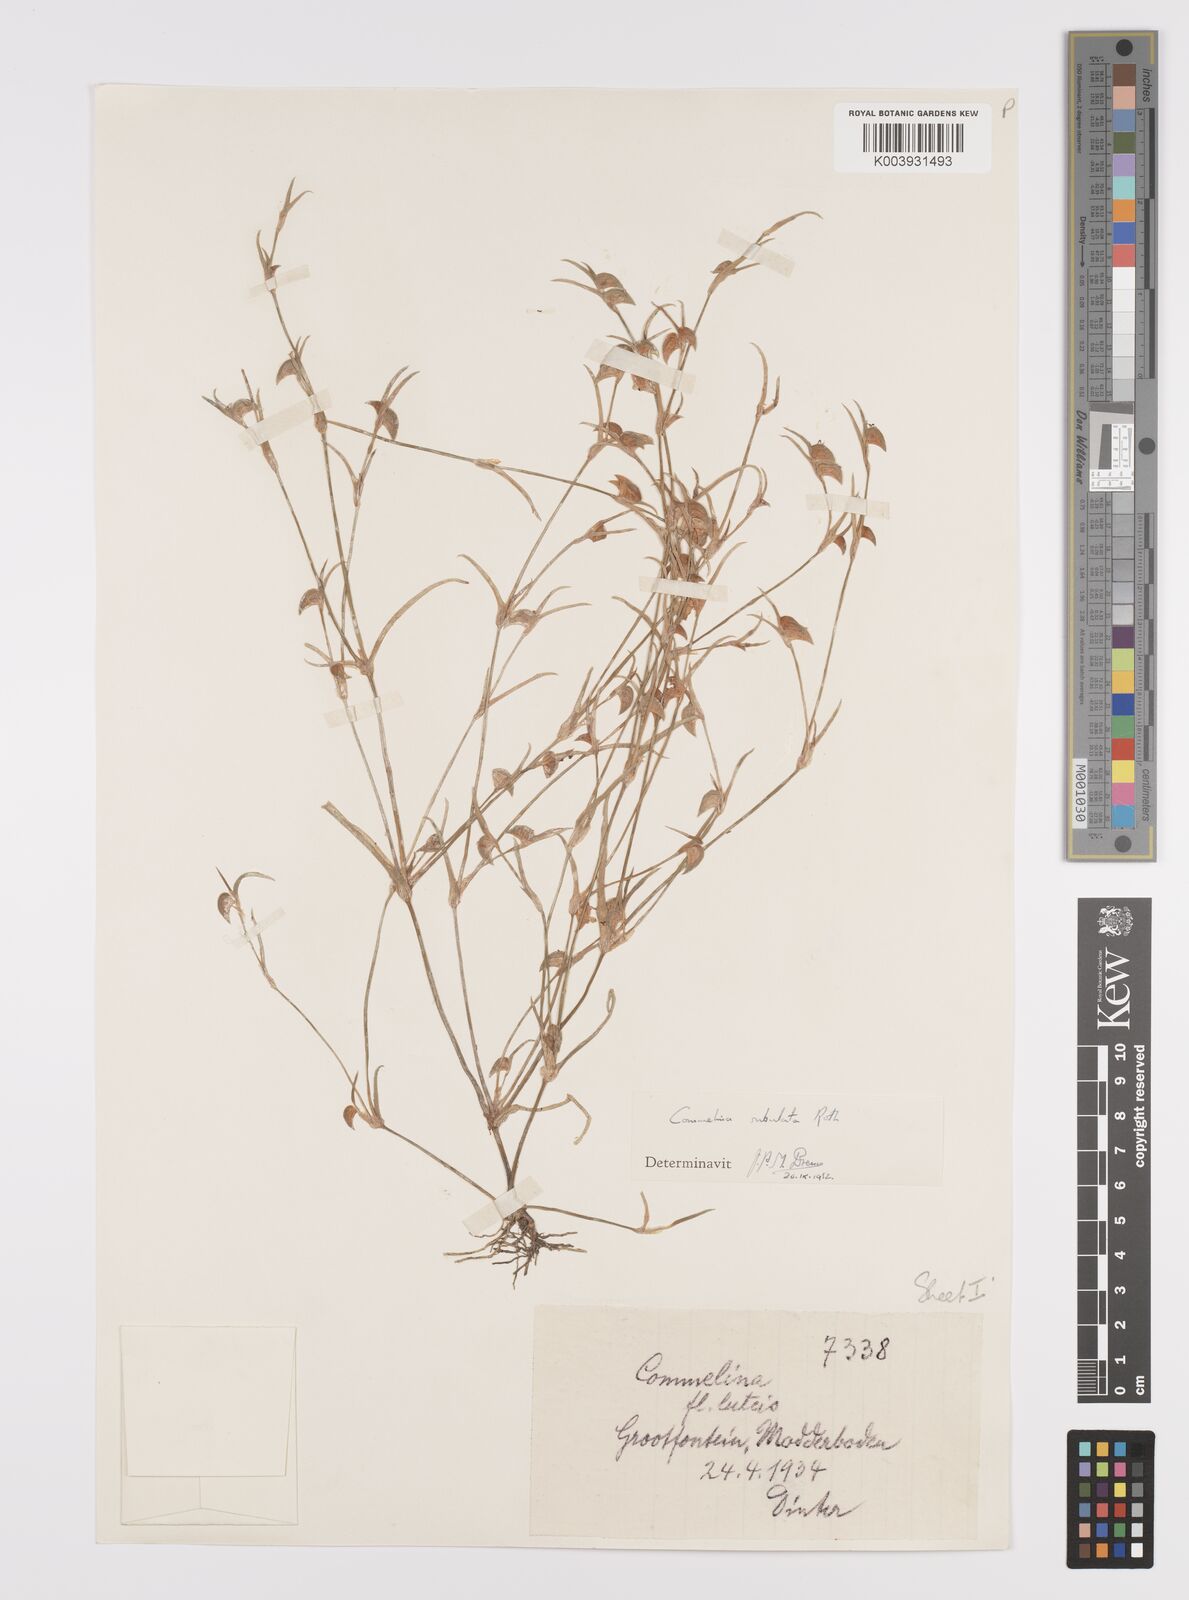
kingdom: Plantae
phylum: Tracheophyta
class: Liliopsida
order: Commelinales
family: Commelinaceae
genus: Commelina
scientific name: Commelina subulata
